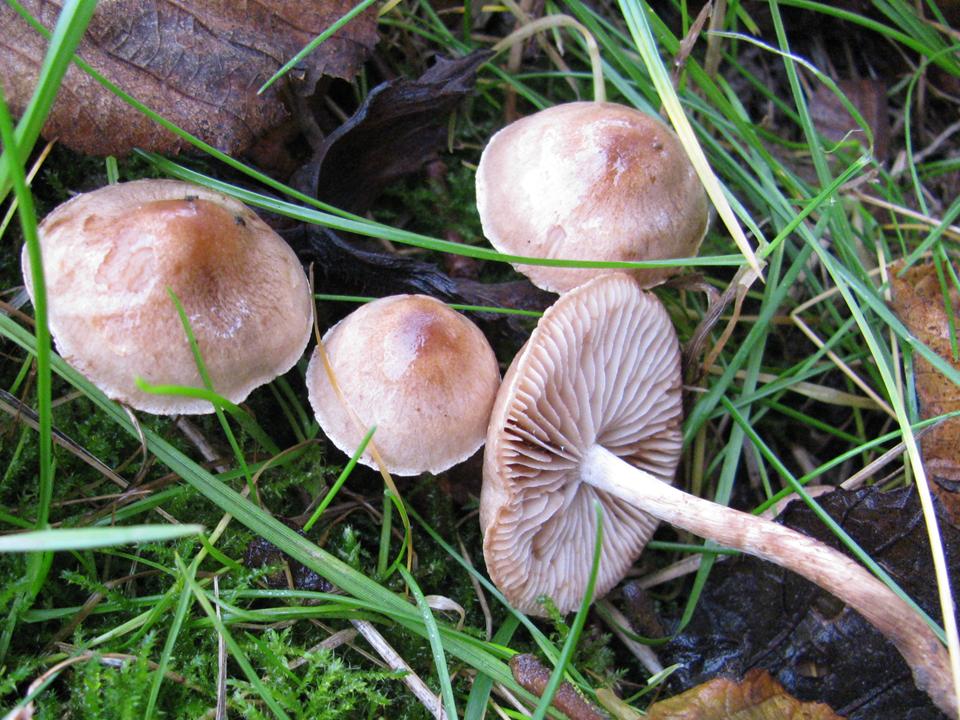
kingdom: Fungi
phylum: Basidiomycota
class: Agaricomycetes
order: Agaricales
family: Hymenogastraceae
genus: Hebeloma
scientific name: Hebeloma mesophaeum
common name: lerbrun tåreblad
